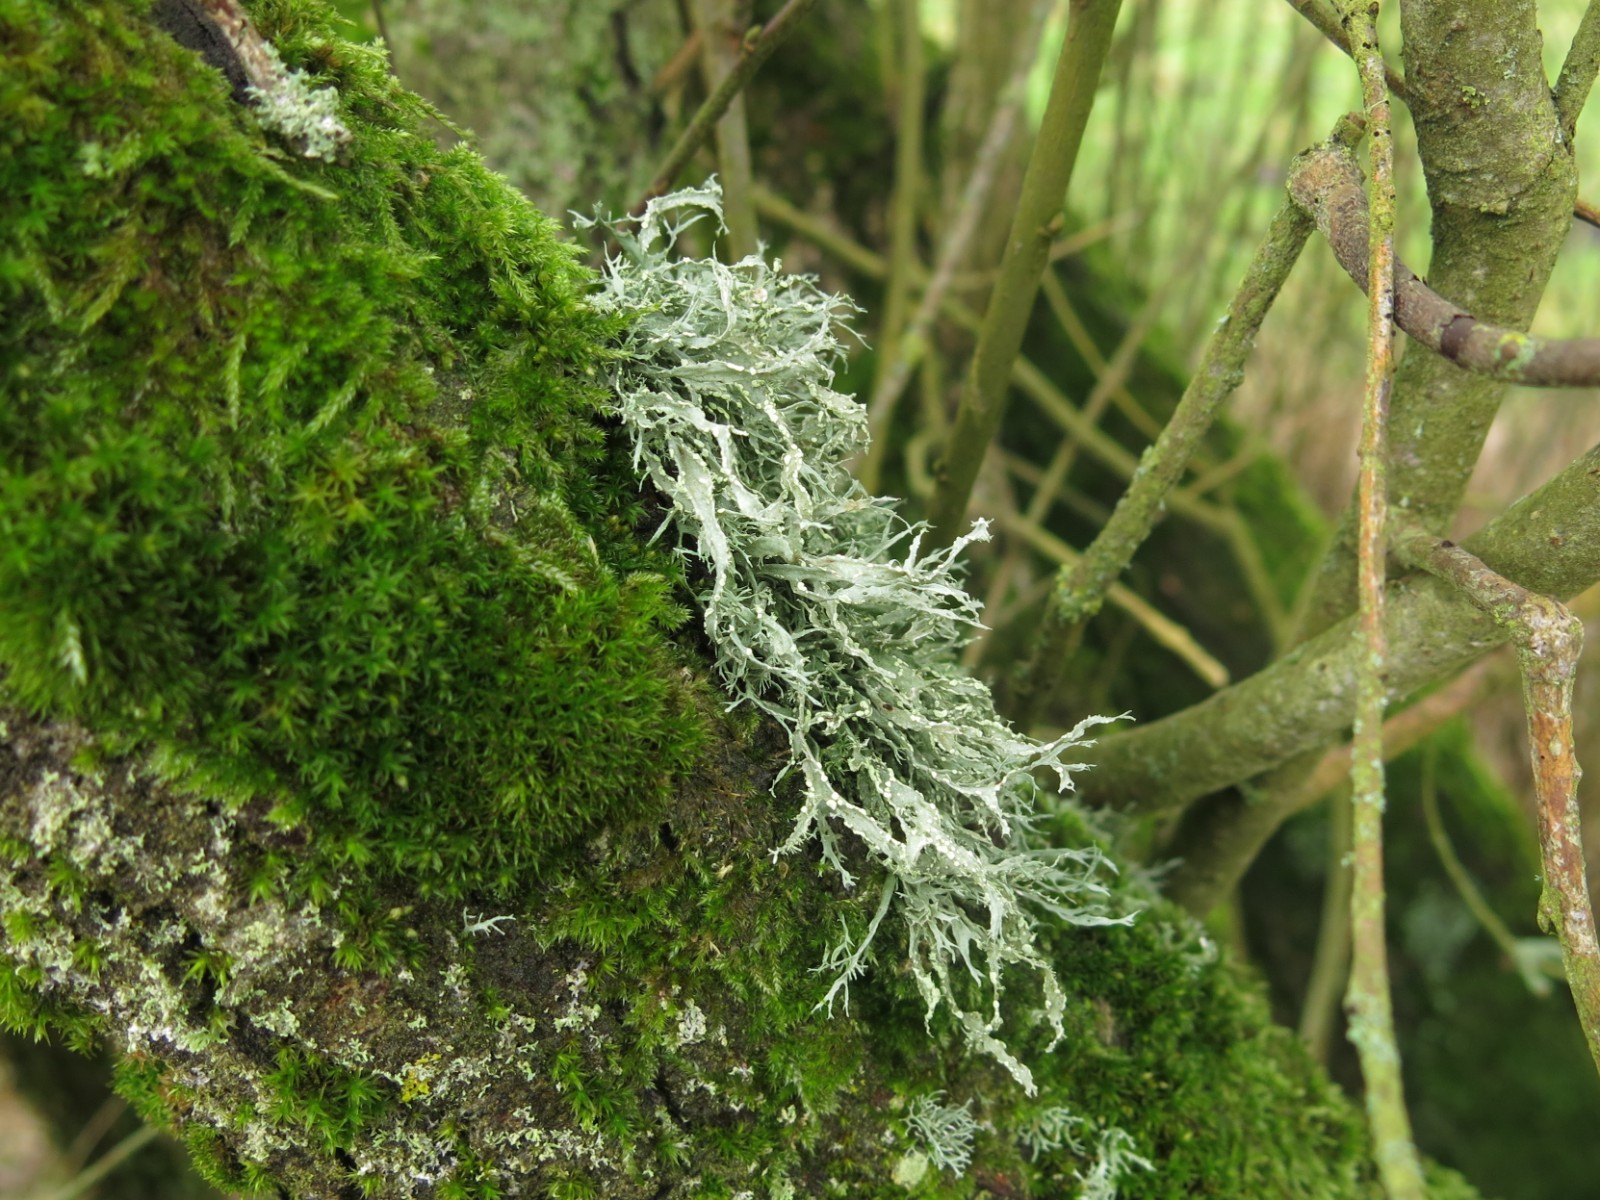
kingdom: Fungi
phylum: Ascomycota
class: Lecanoromycetes
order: Lecanorales
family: Ramalinaceae
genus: Ramalina
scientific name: Ramalina farinacea
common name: melet grenlav
